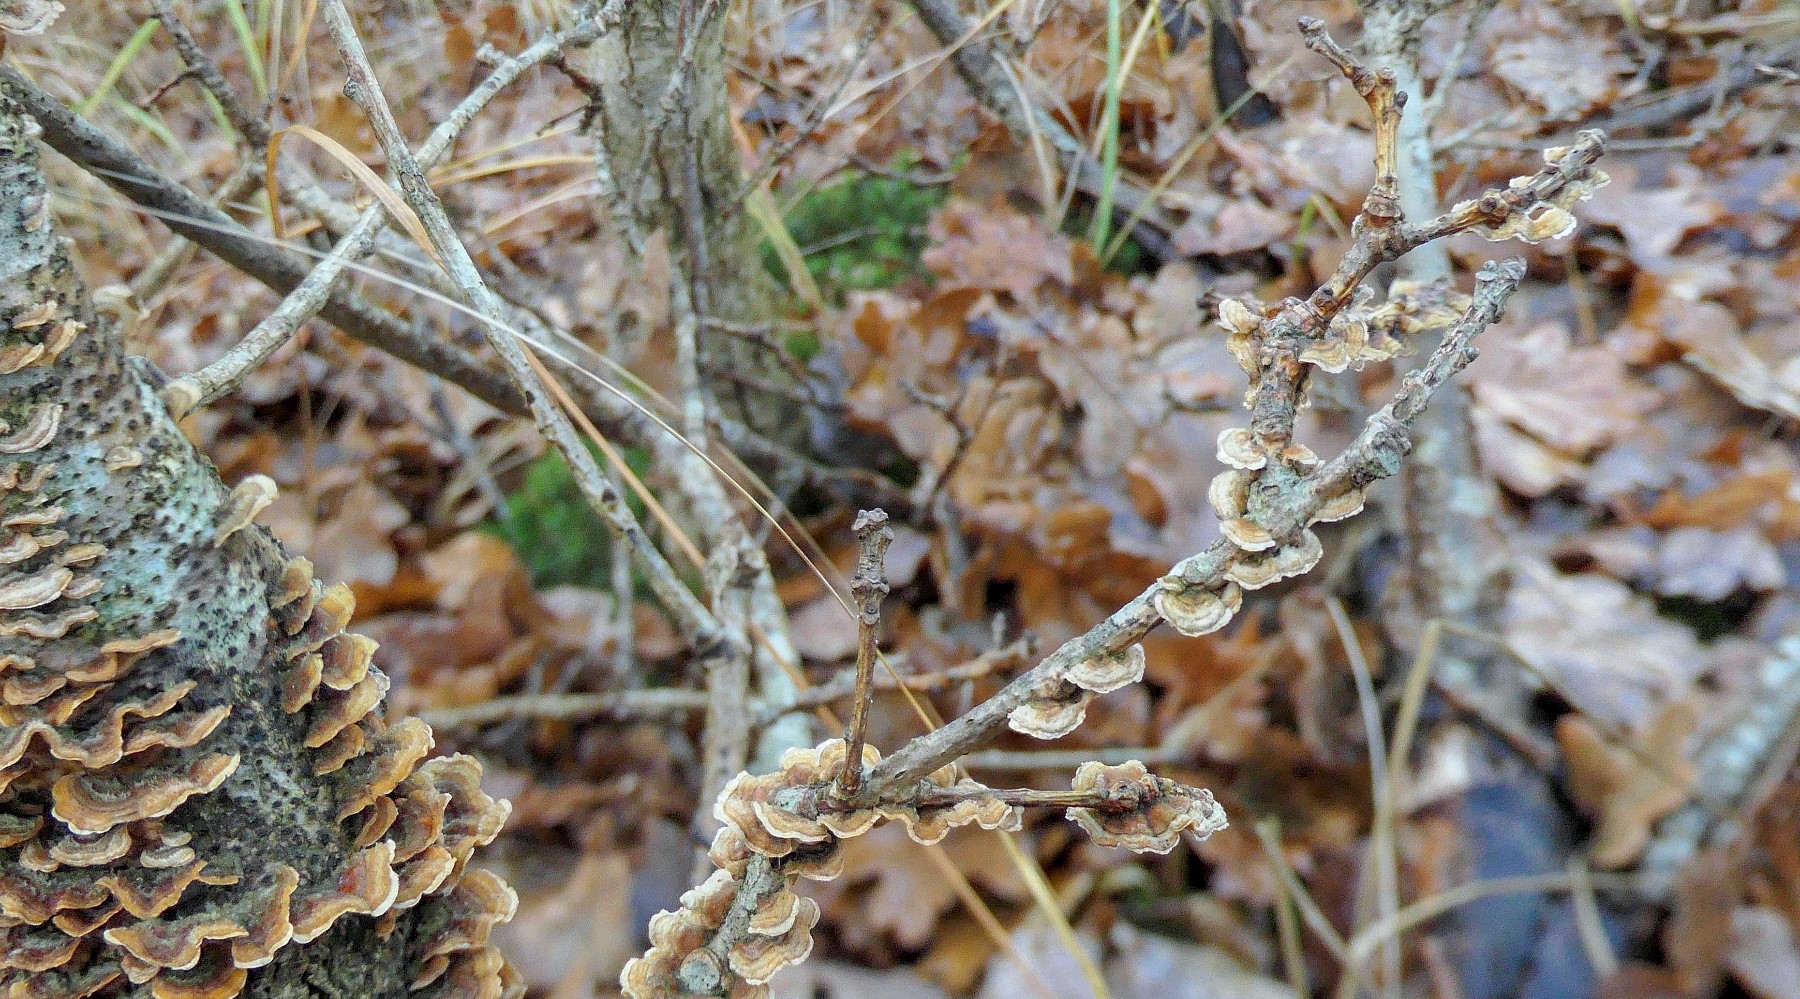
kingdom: Fungi
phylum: Basidiomycota
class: Agaricomycetes
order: Russulales
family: Stereaceae
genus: Stereum
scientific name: Stereum gausapatum
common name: tynd lædersvamp
